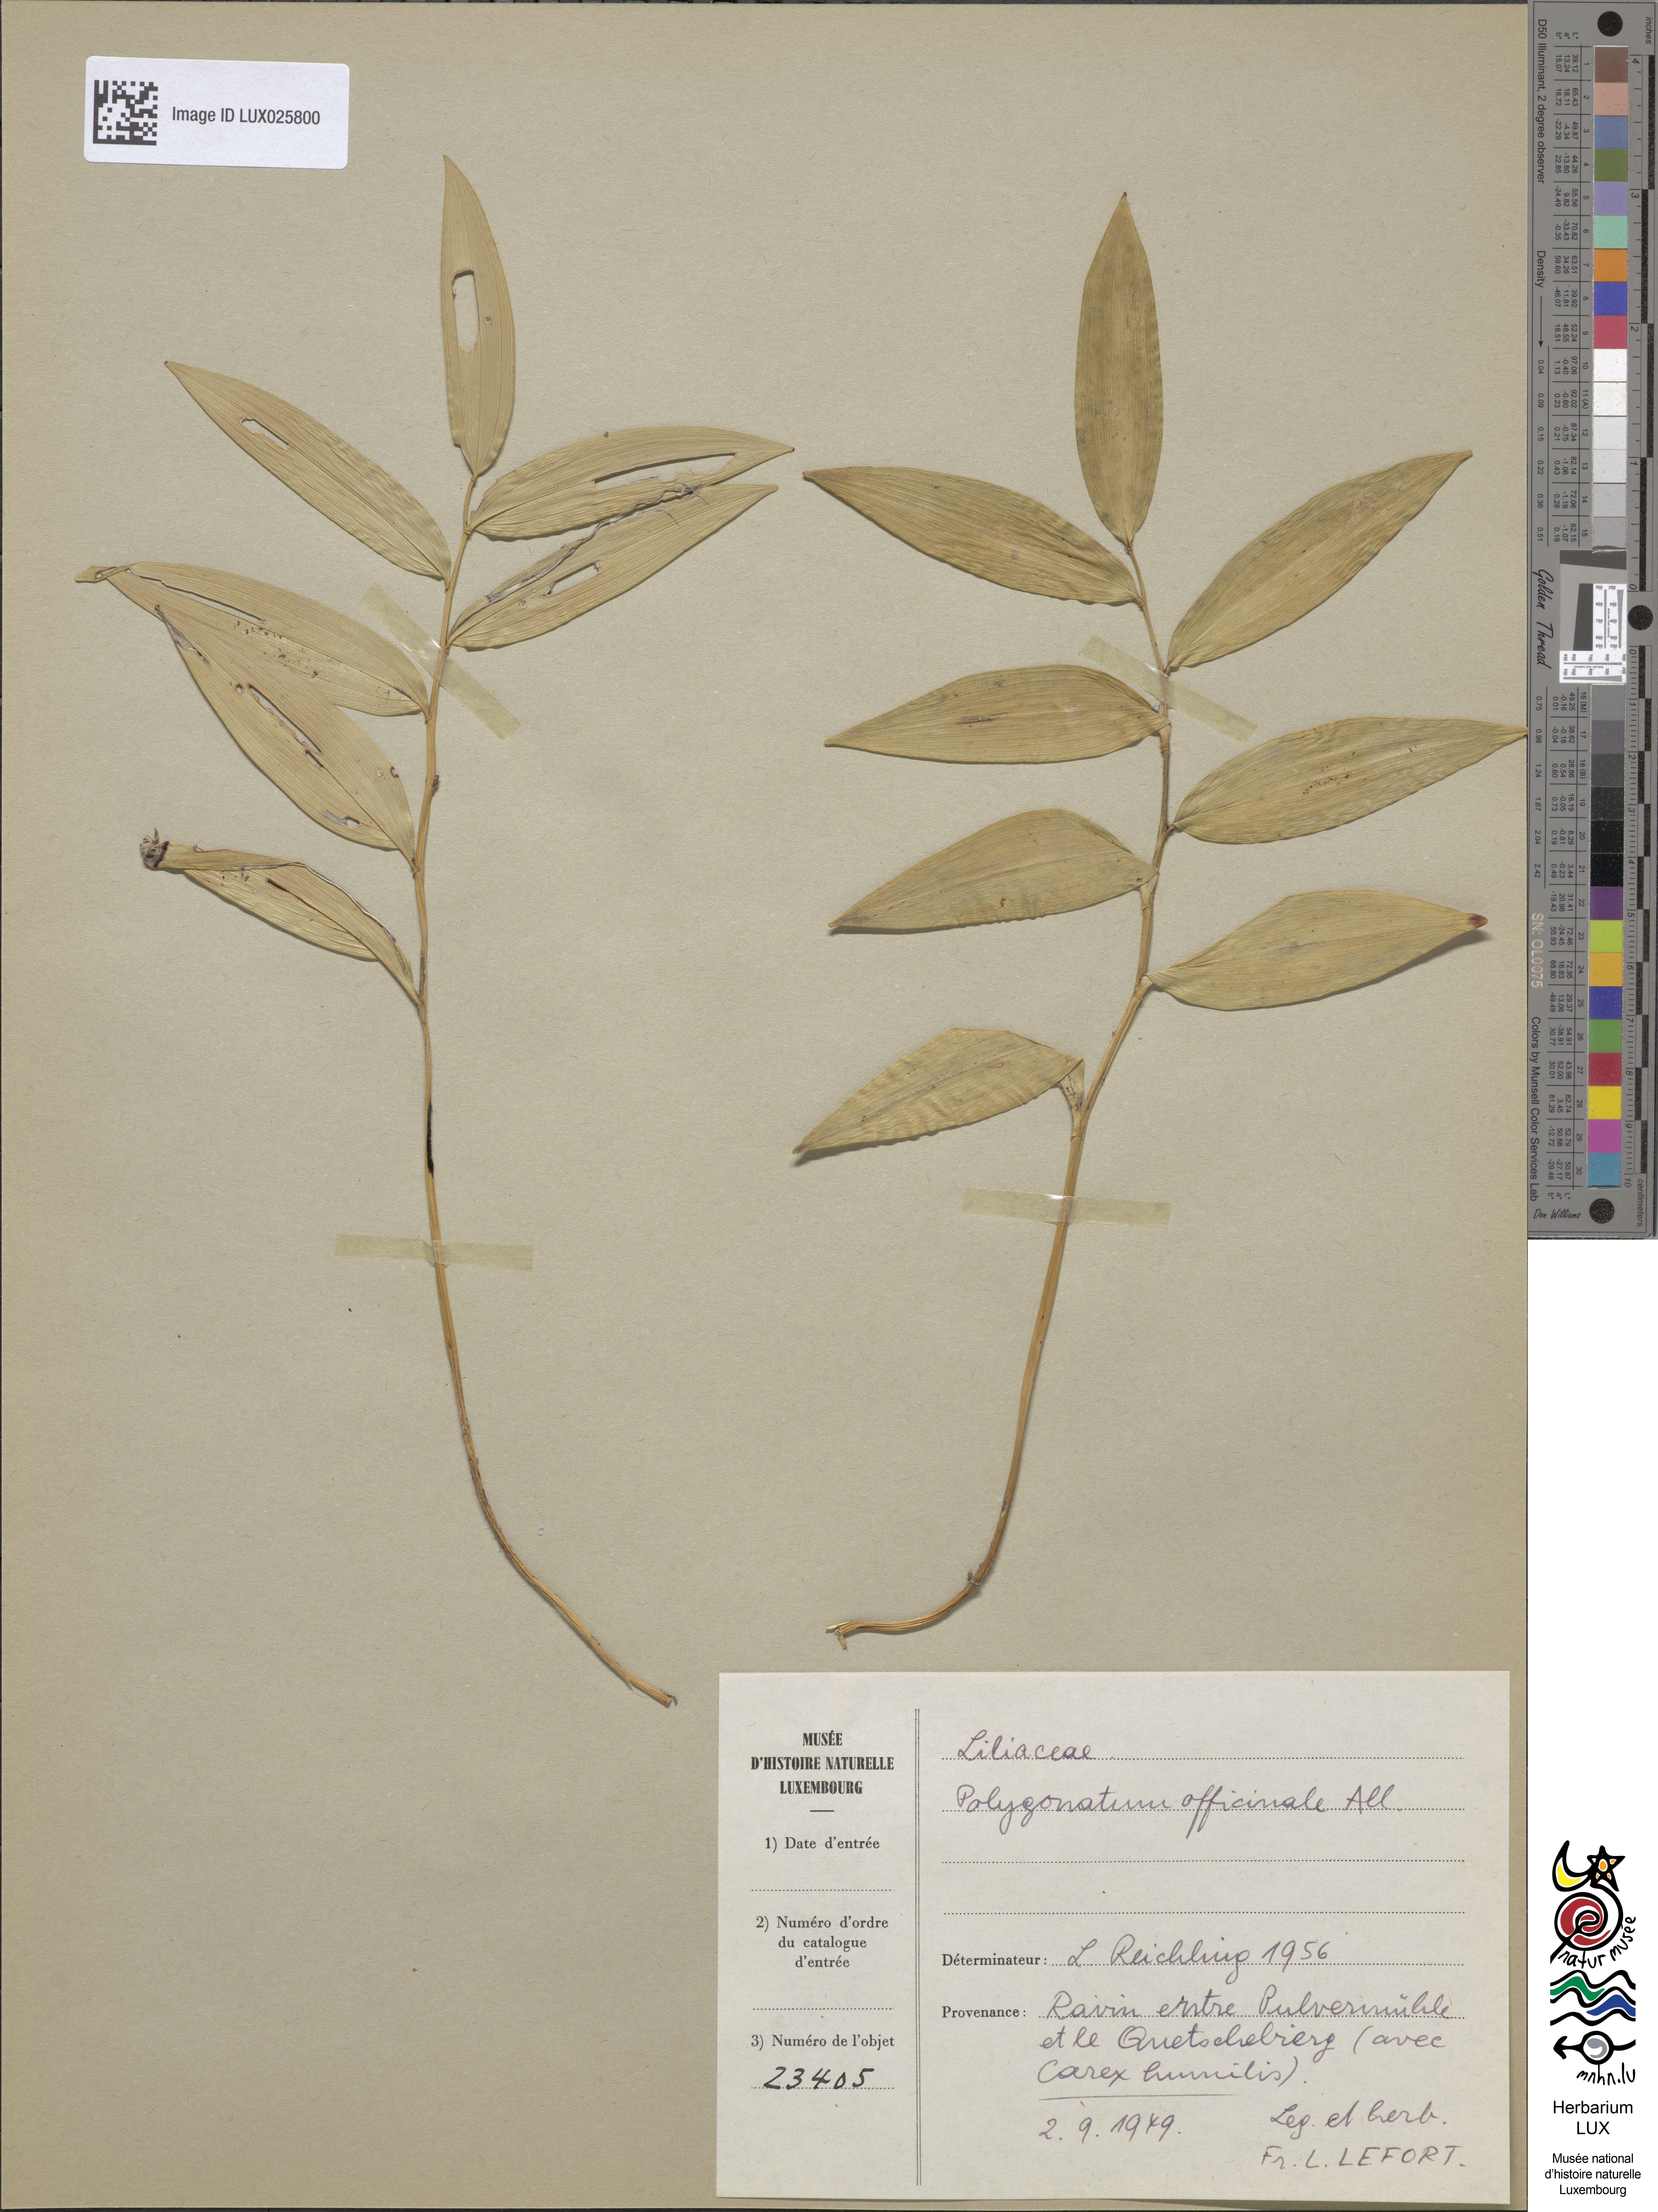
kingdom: Plantae
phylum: Tracheophyta
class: Liliopsida
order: Asparagales
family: Asparagaceae
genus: Polygonatum
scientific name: Polygonatum odoratum
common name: Angular solomon's-seal
